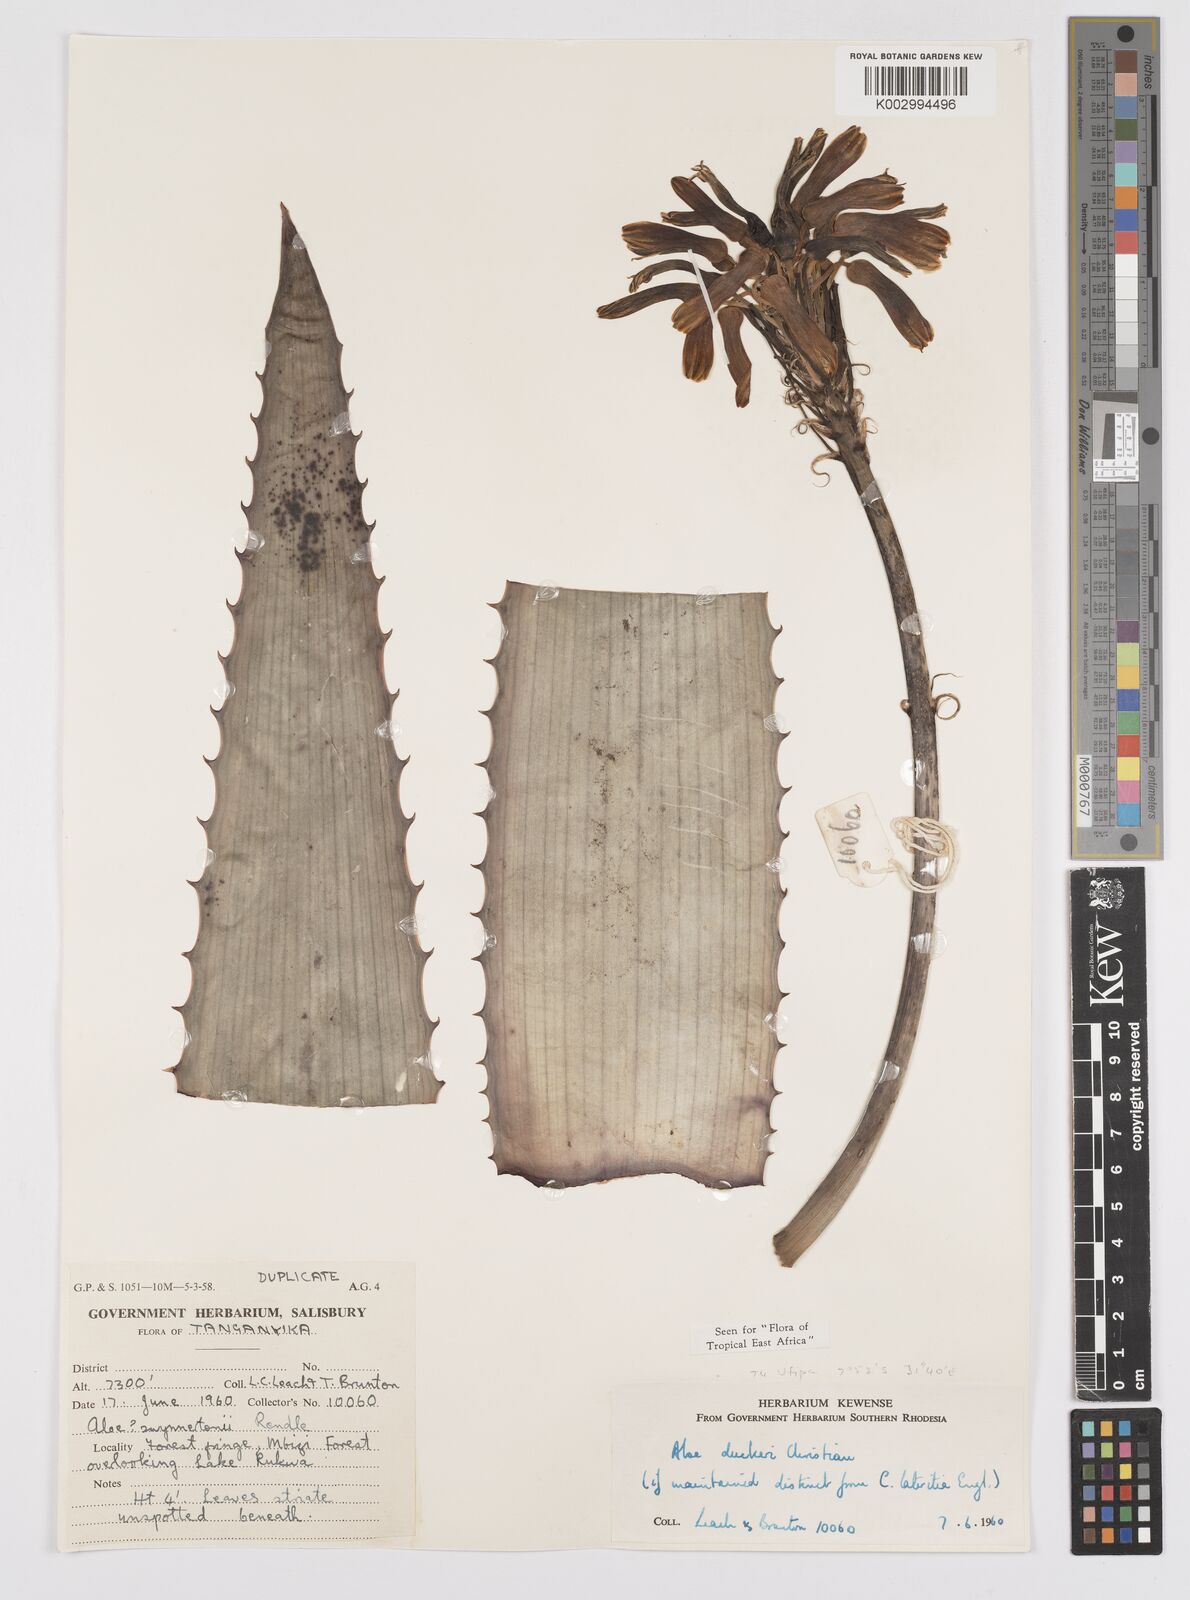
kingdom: Plantae
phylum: Tracheophyta
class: Liliopsida
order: Asparagales
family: Asphodelaceae
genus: Aloe
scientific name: Aloe duckeri
